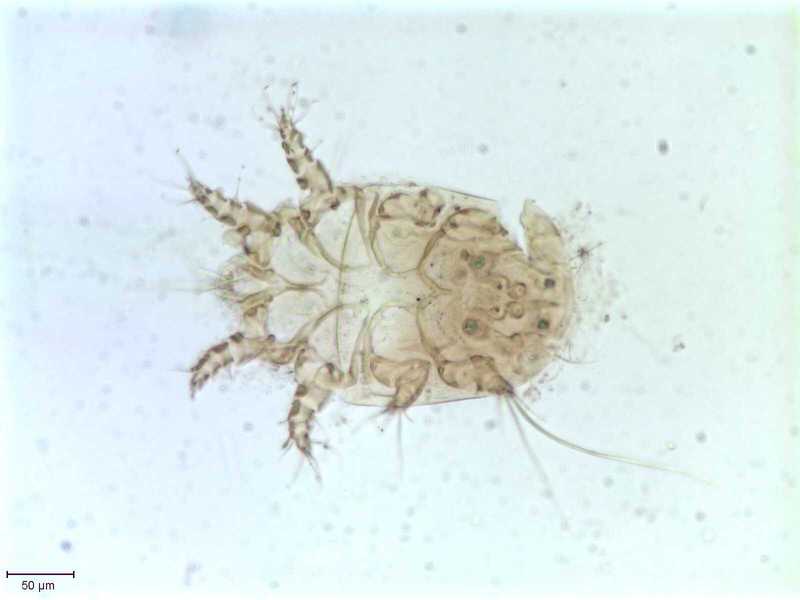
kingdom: Animalia
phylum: Hemichordata
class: Enteropneusta
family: Harrimaniidae
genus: Horstia
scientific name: Horstia
